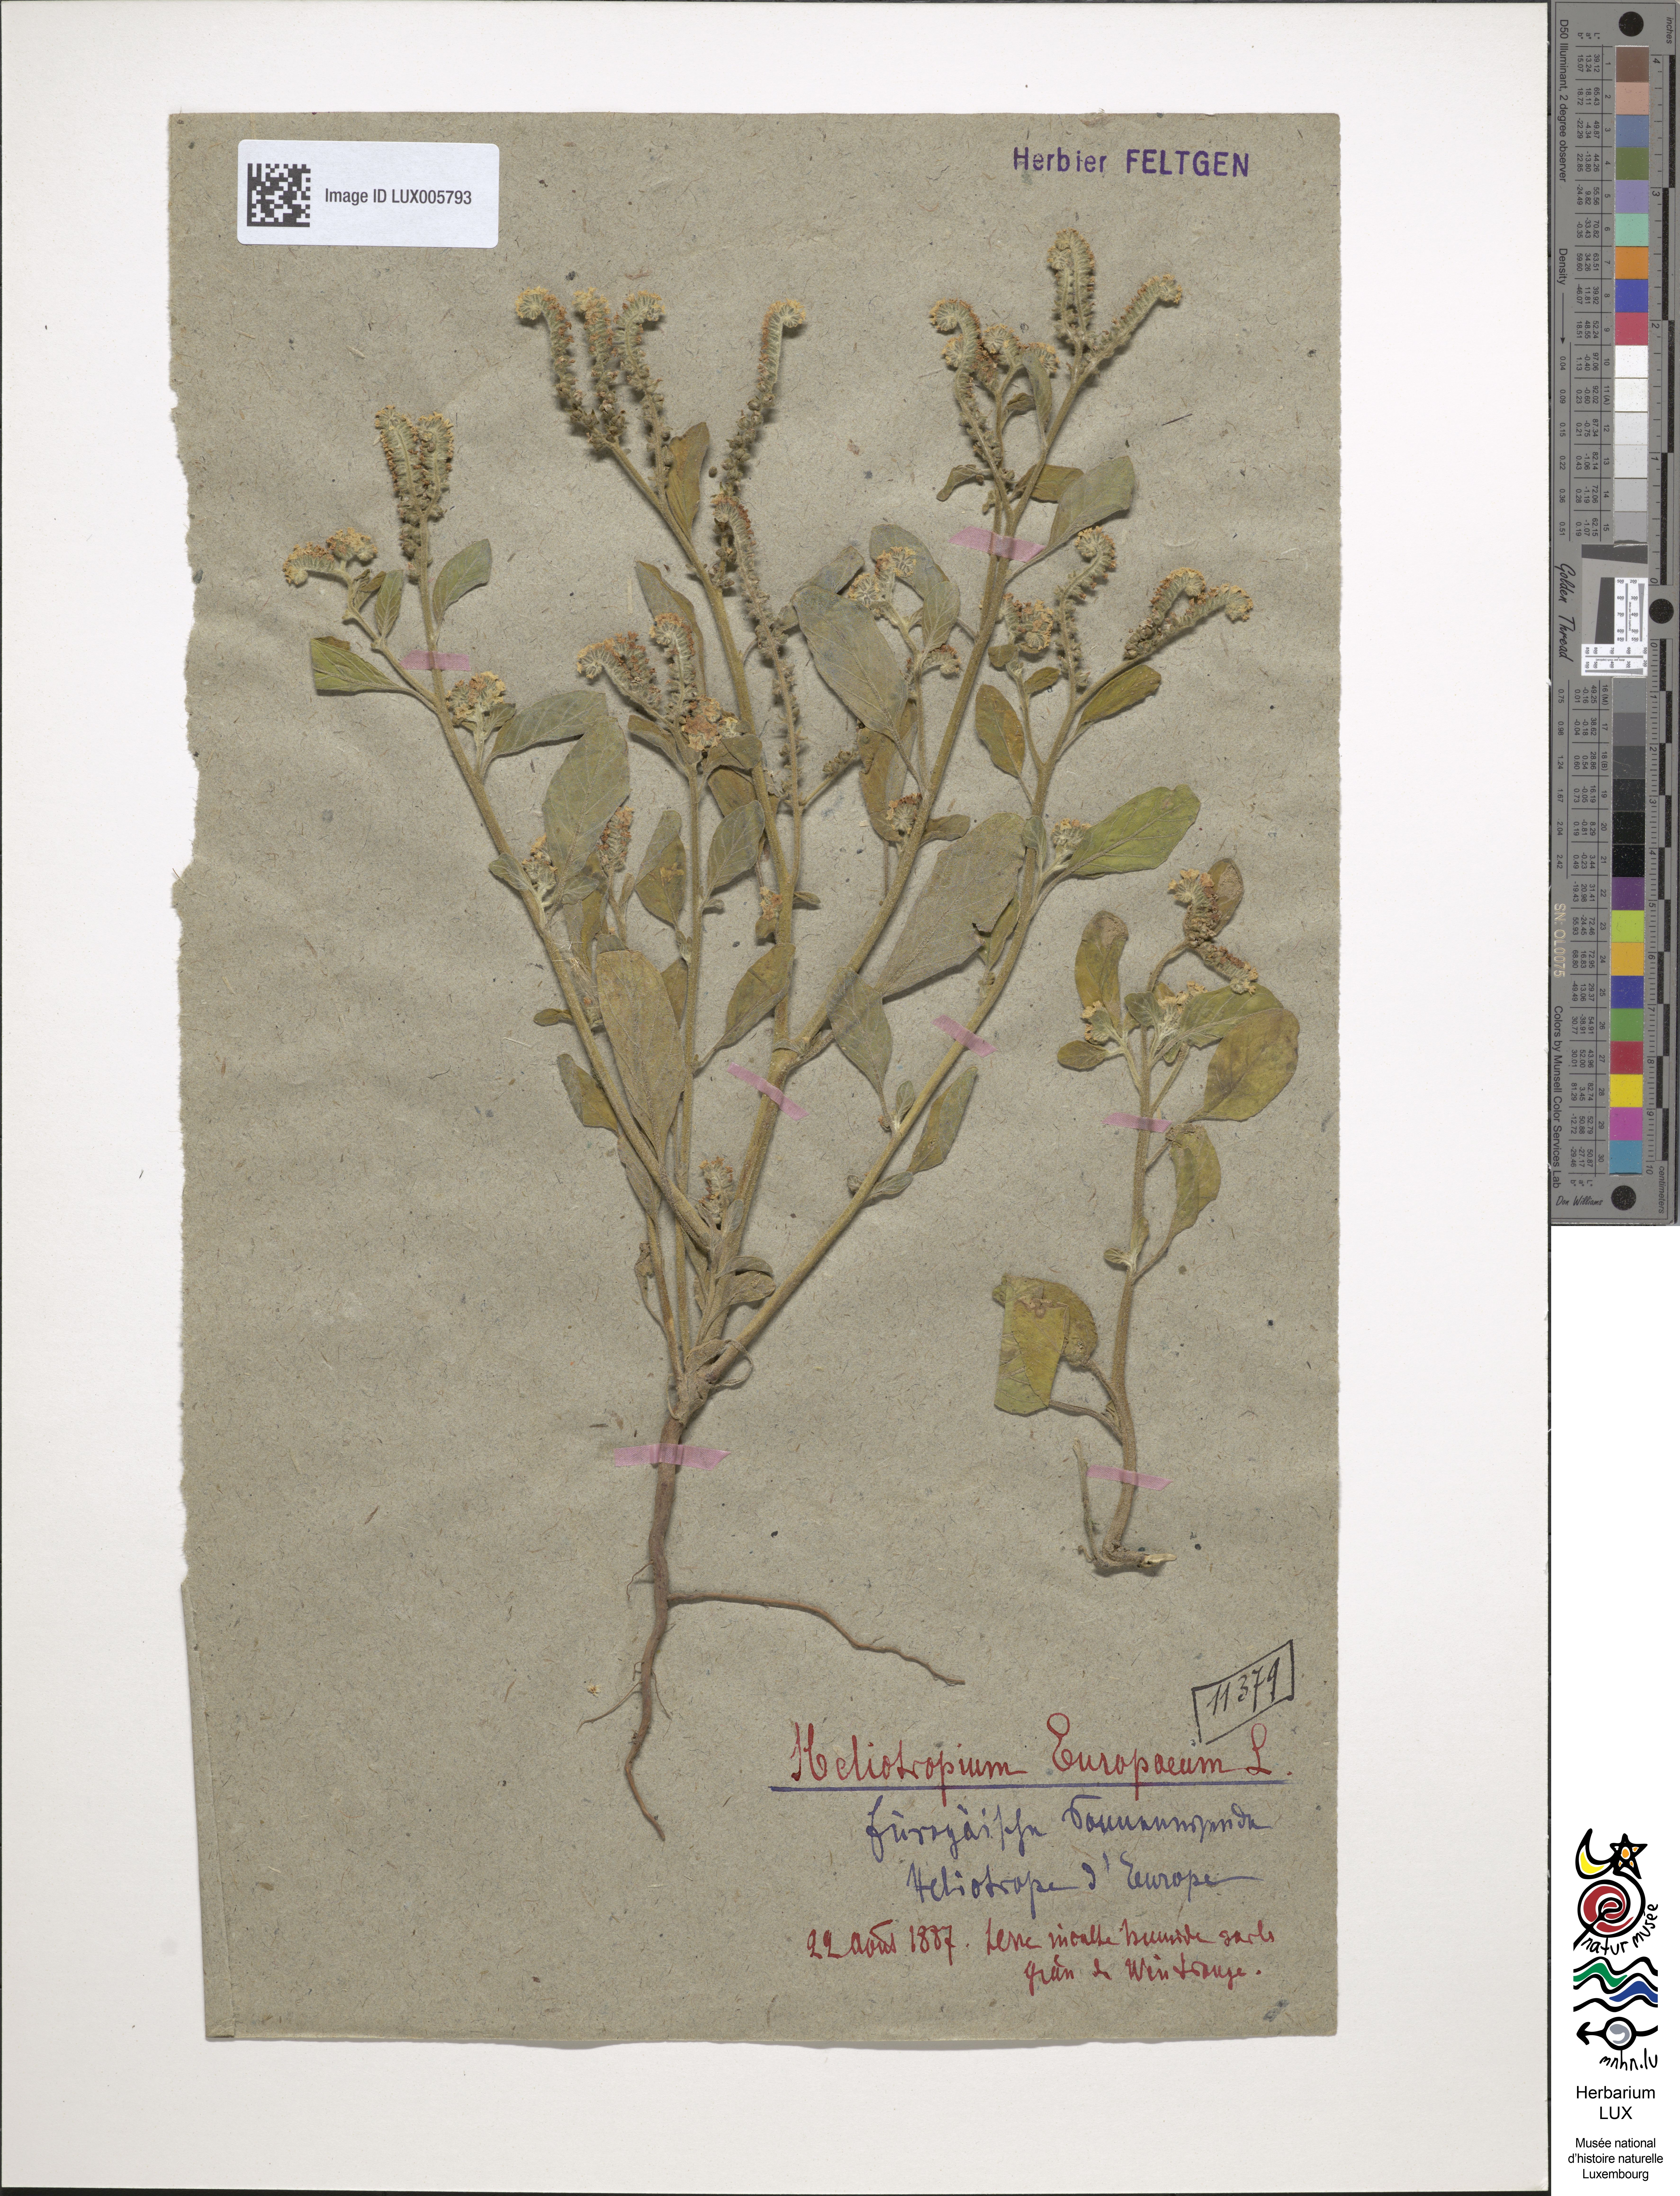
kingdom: Plantae
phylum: Tracheophyta
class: Magnoliopsida
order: Boraginales
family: Heliotropiaceae
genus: Heliotropium
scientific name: Heliotropium europaeum
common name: European heliotrope
